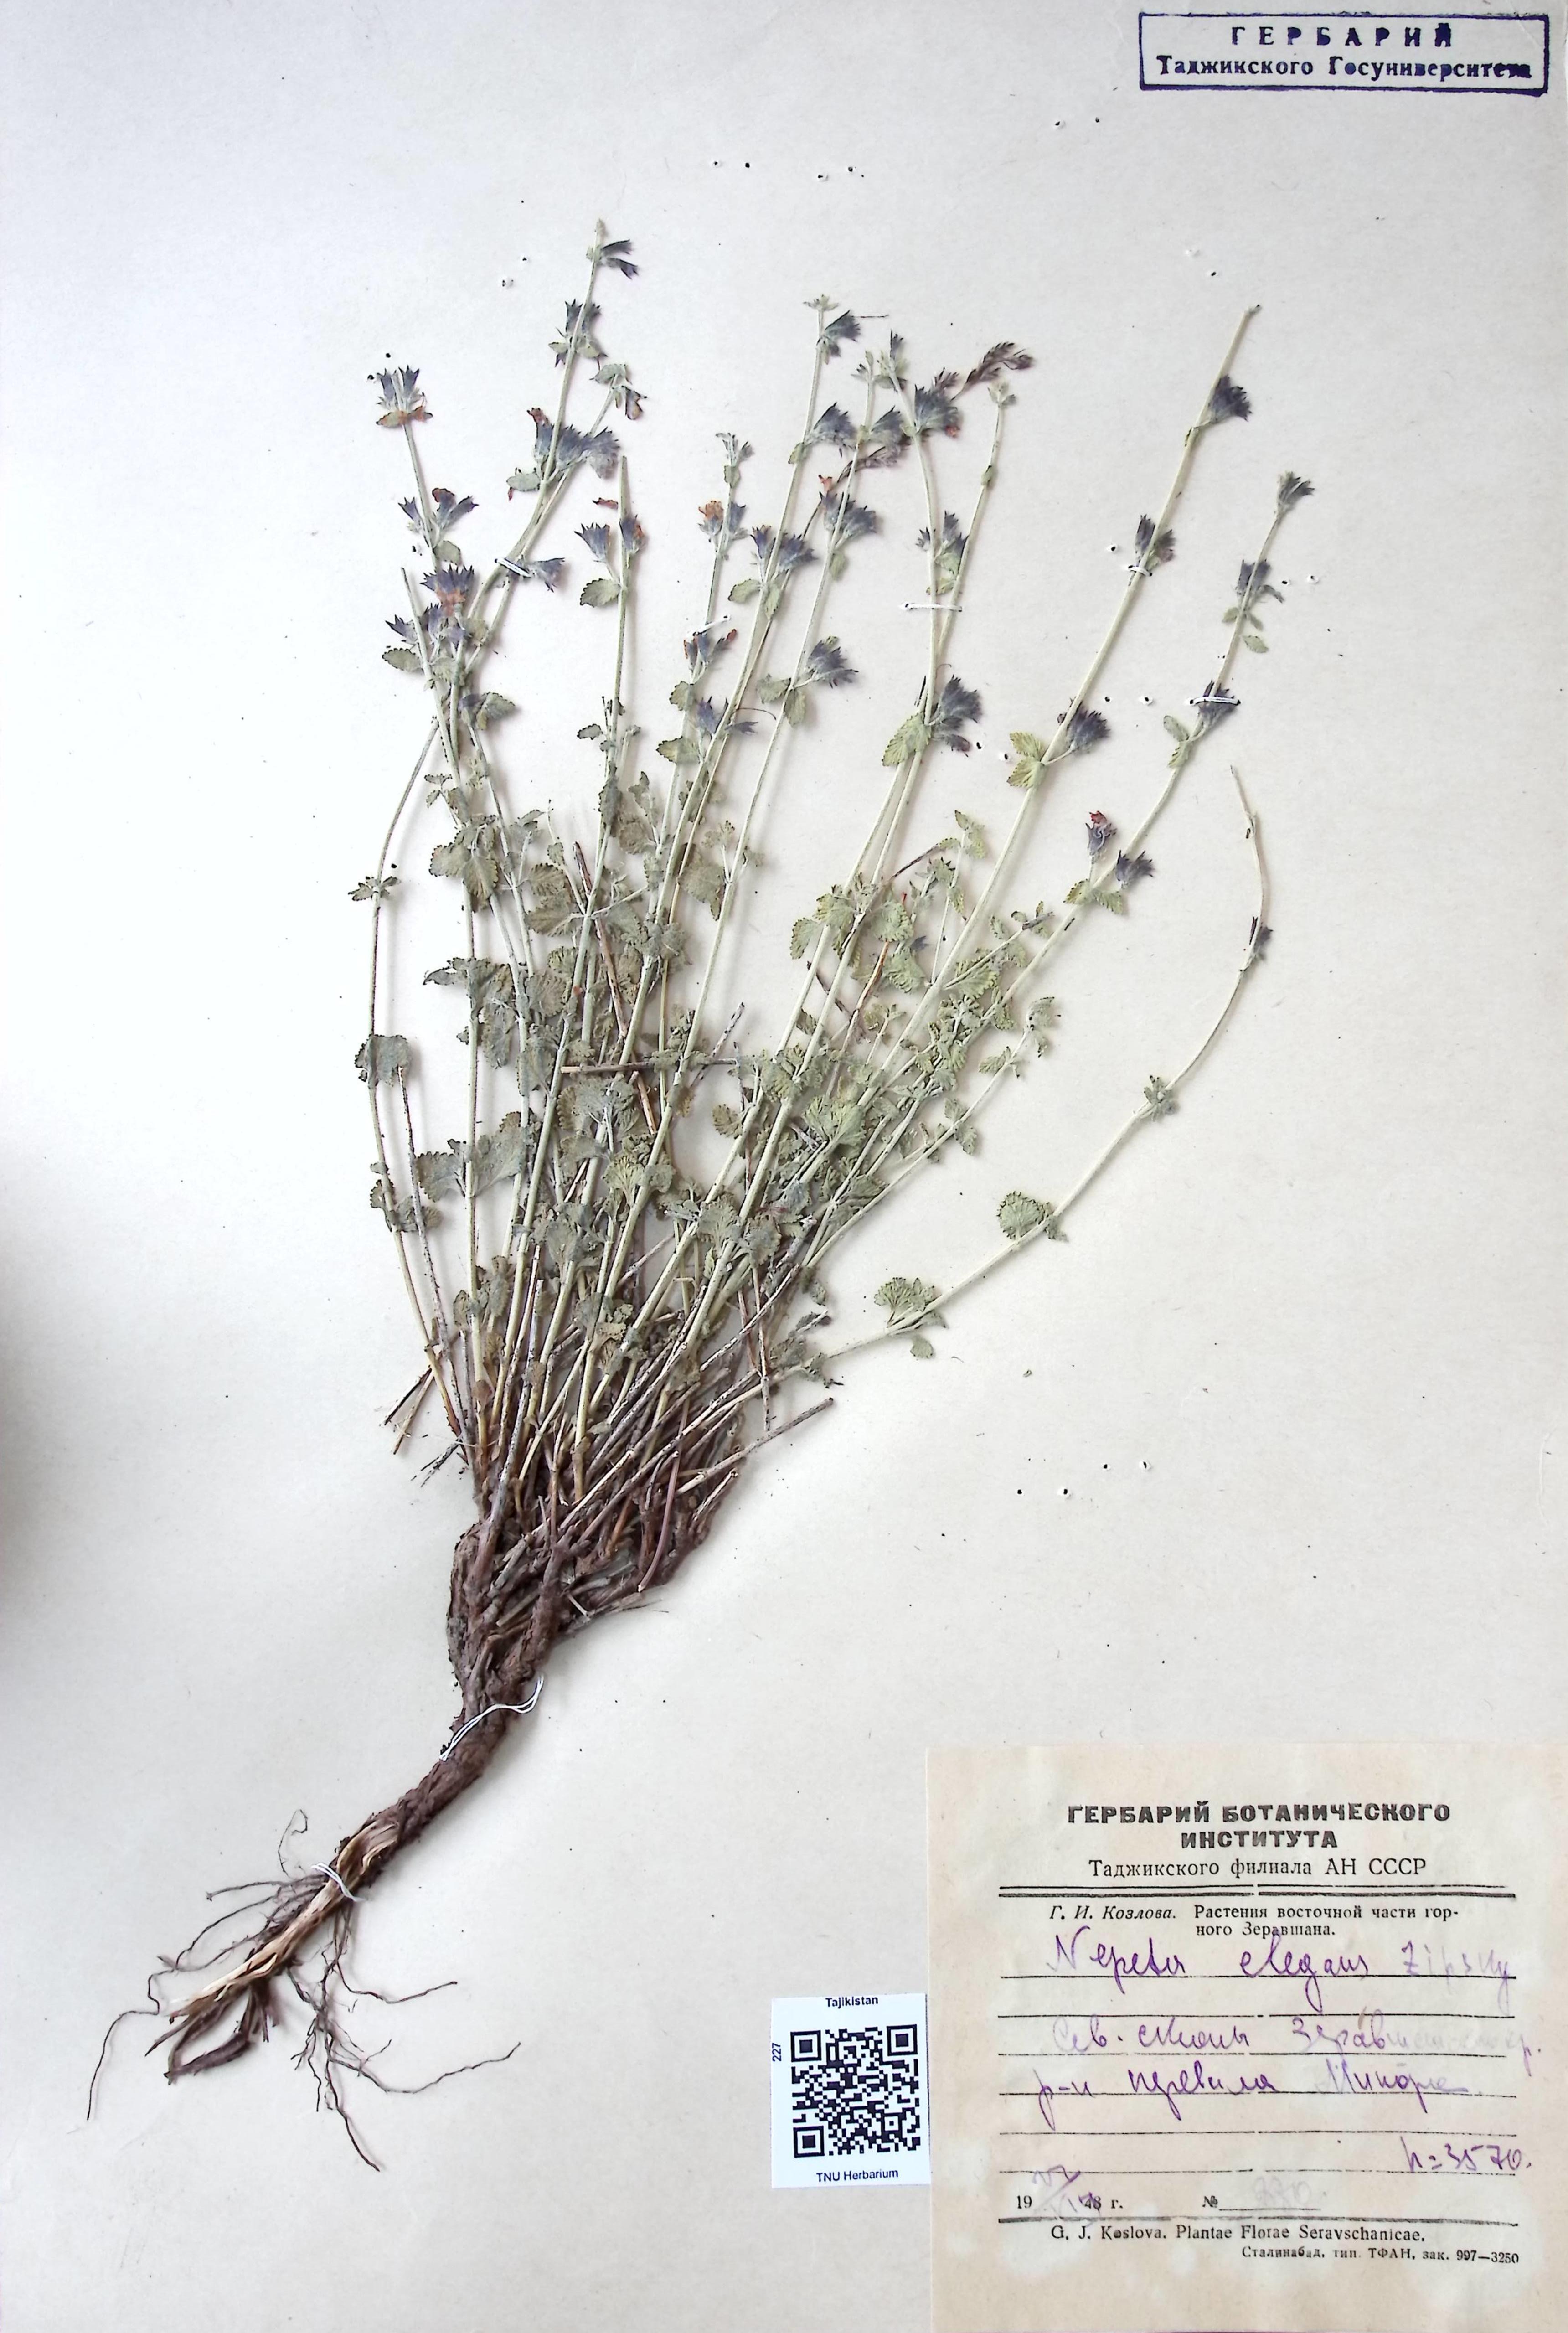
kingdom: Plantae
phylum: Tracheophyta
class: Magnoliopsida
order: Lamiales
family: Lamiaceae
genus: Nepeta
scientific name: Nepeta elegans
